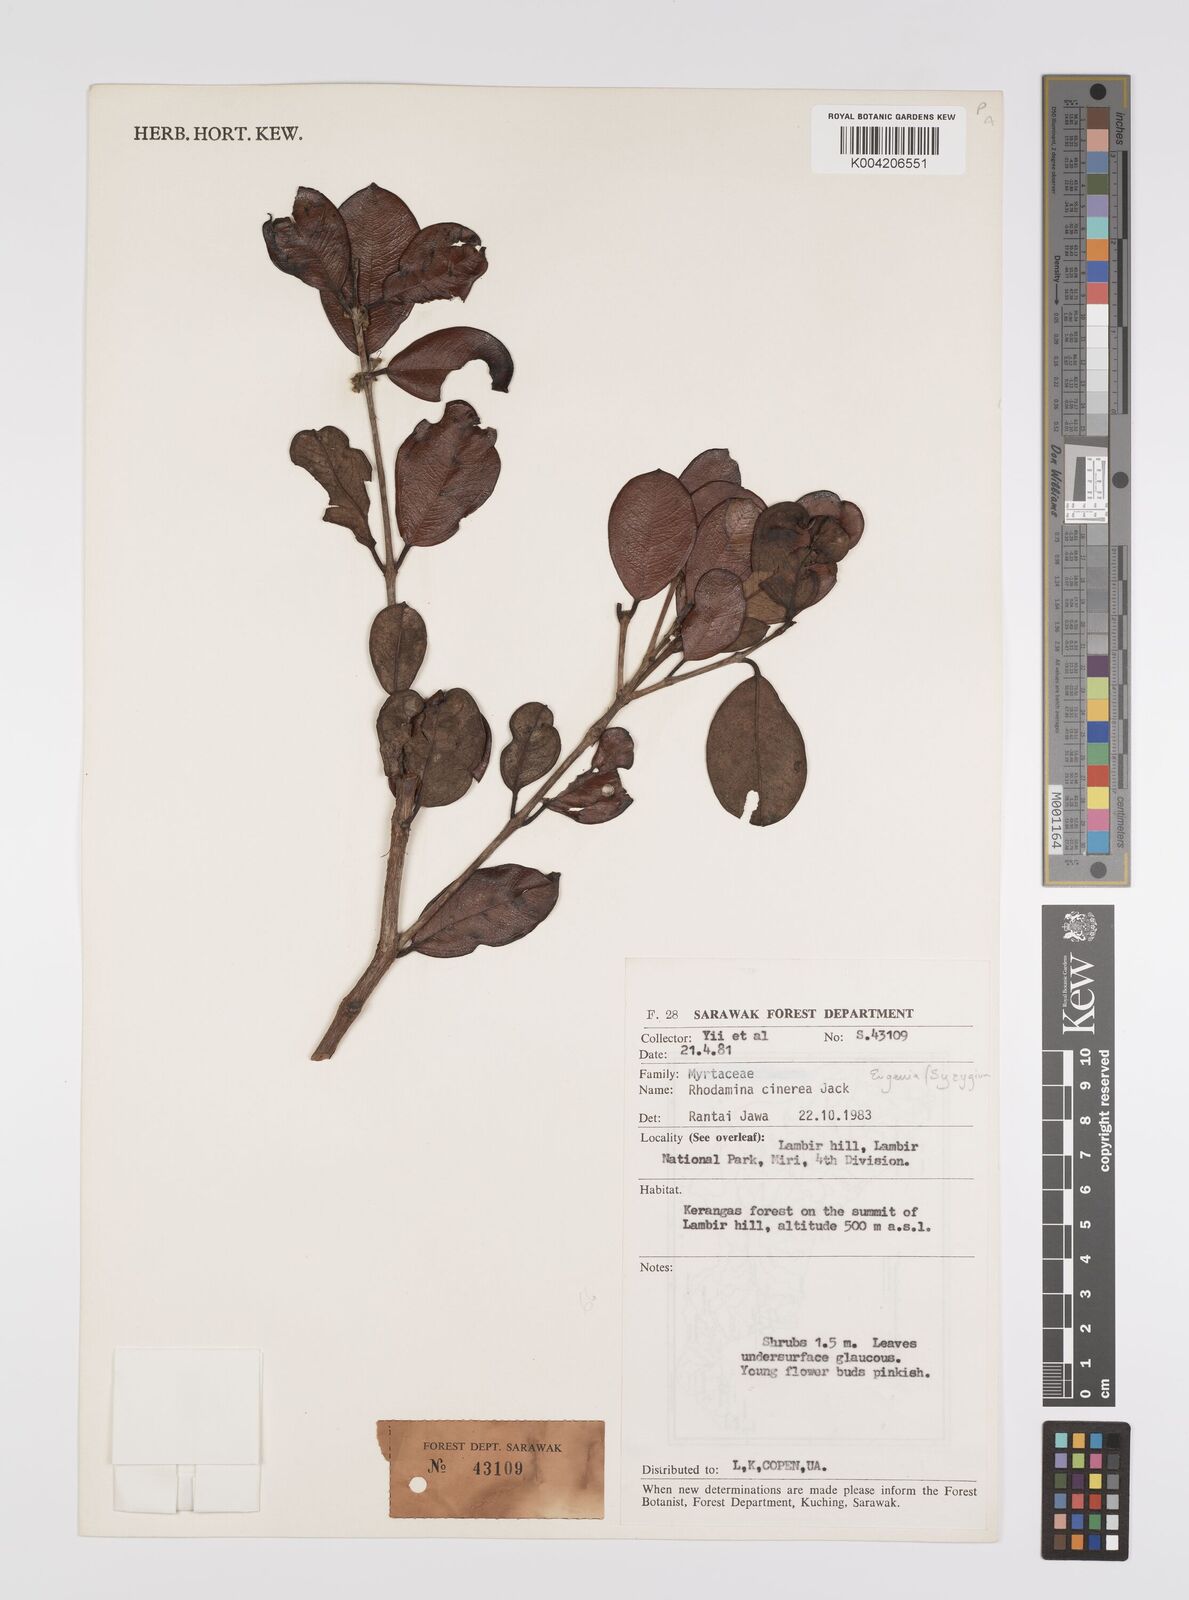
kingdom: Plantae
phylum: Tracheophyta
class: Magnoliopsida
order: Myrtales
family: Myrtaceae
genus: Rhodamnia
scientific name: Rhodamnia mulleri
